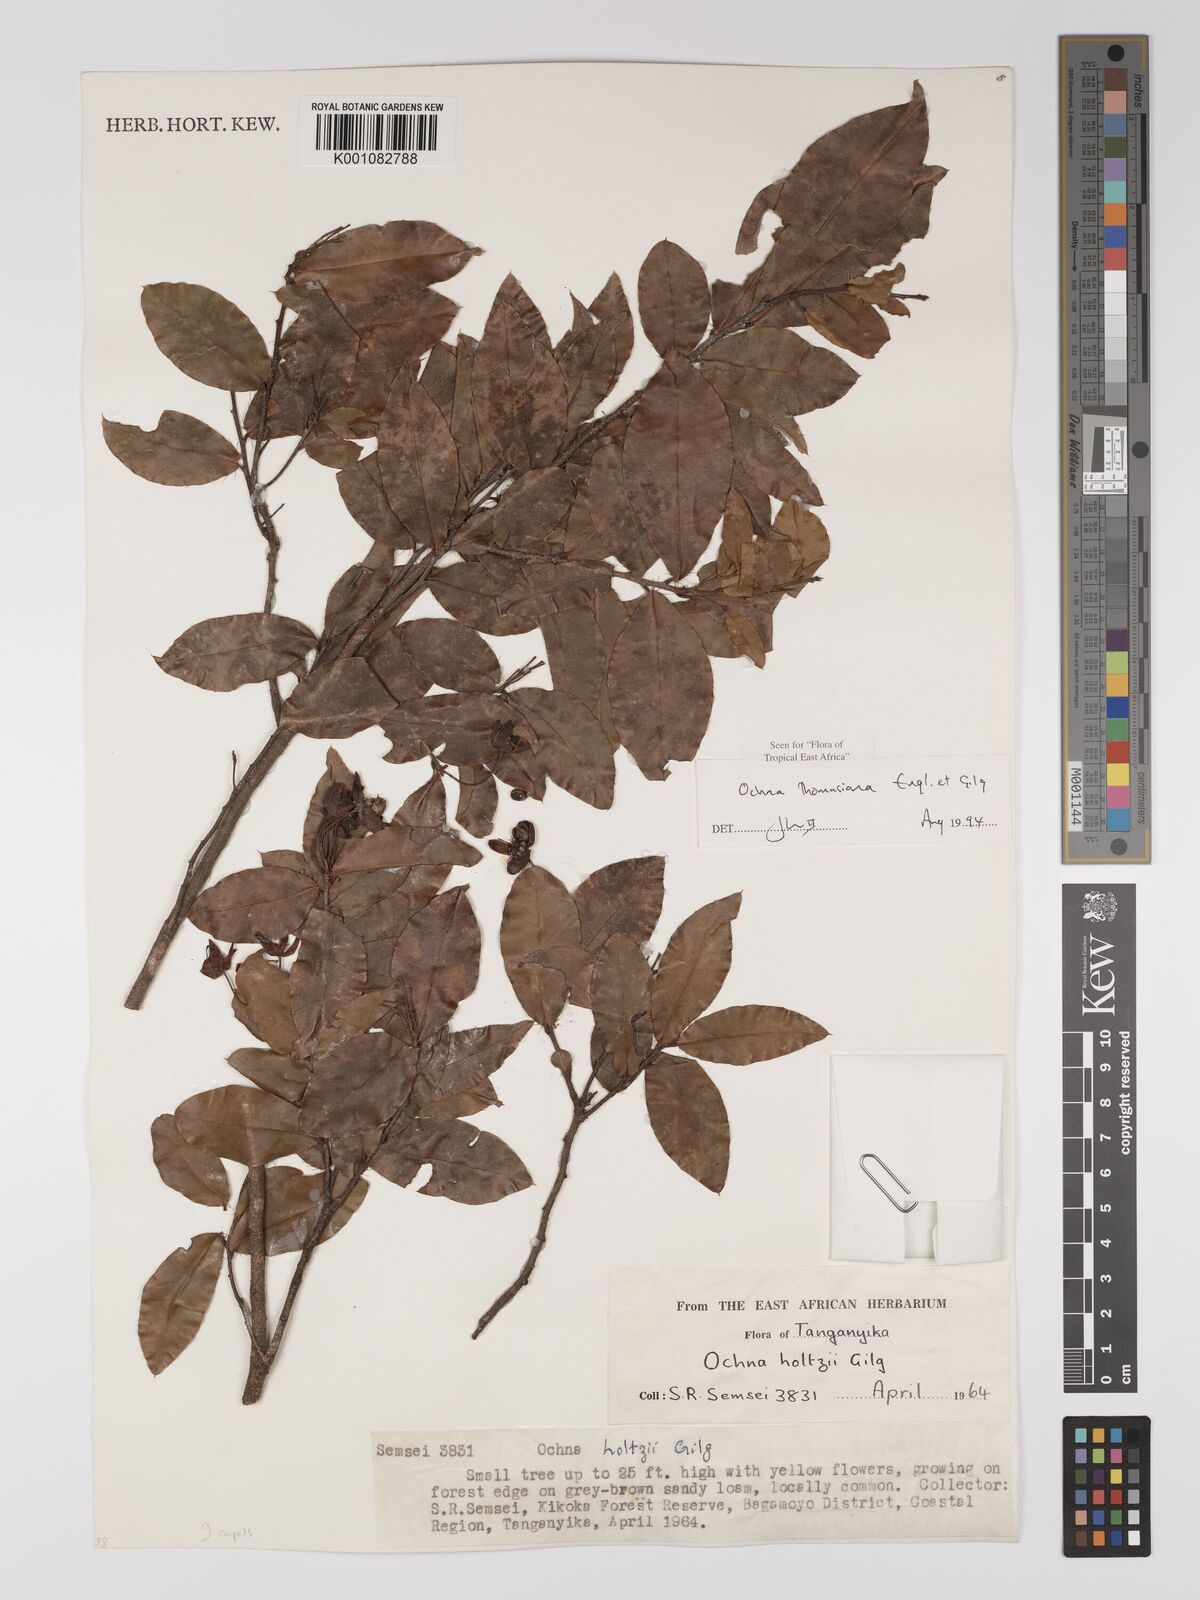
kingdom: Plantae
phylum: Tracheophyta
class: Magnoliopsida
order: Malpighiales
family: Ochnaceae
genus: Ochna
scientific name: Ochna thomasiana
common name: Thomas' bird's-eye bush
